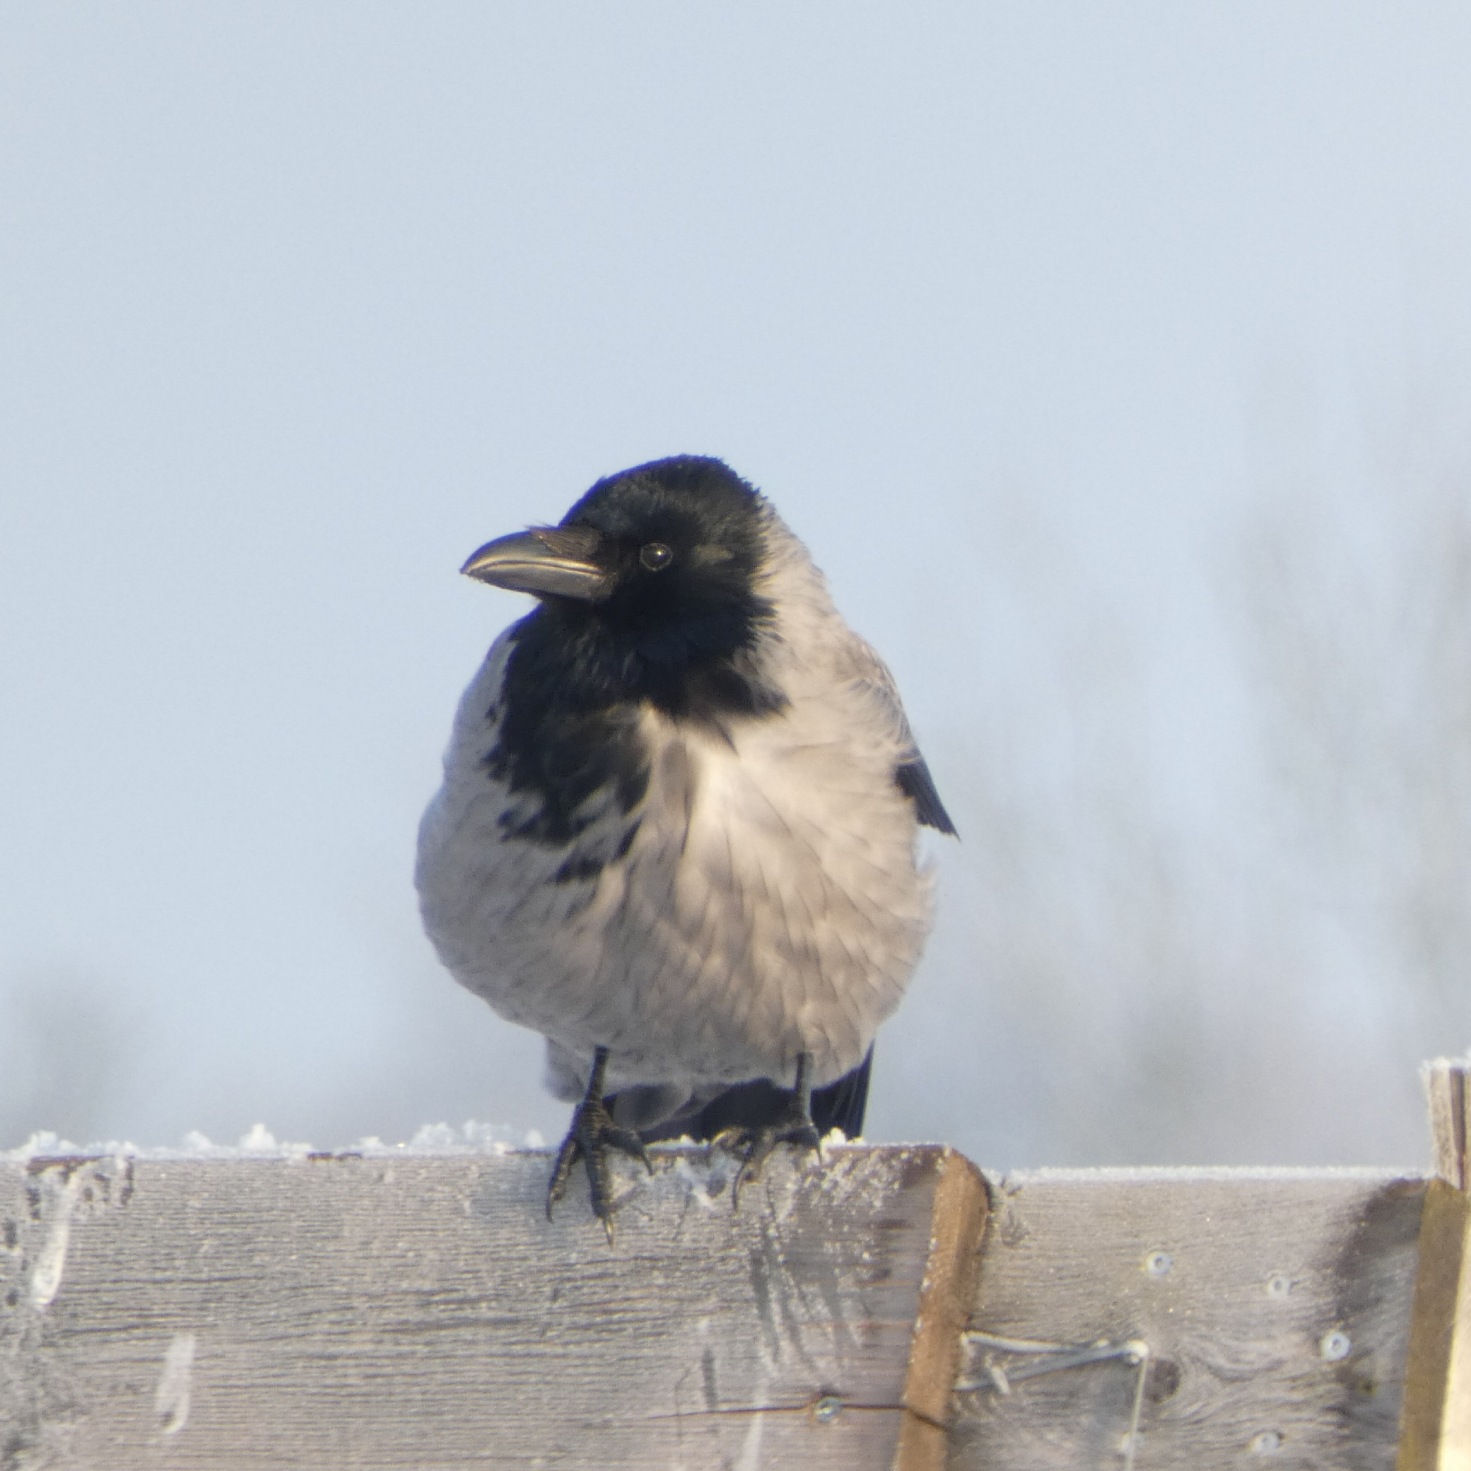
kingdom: Animalia
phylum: Chordata
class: Aves
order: Passeriformes
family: Corvidae
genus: Corvus
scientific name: Corvus cornix
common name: Gråkrage
